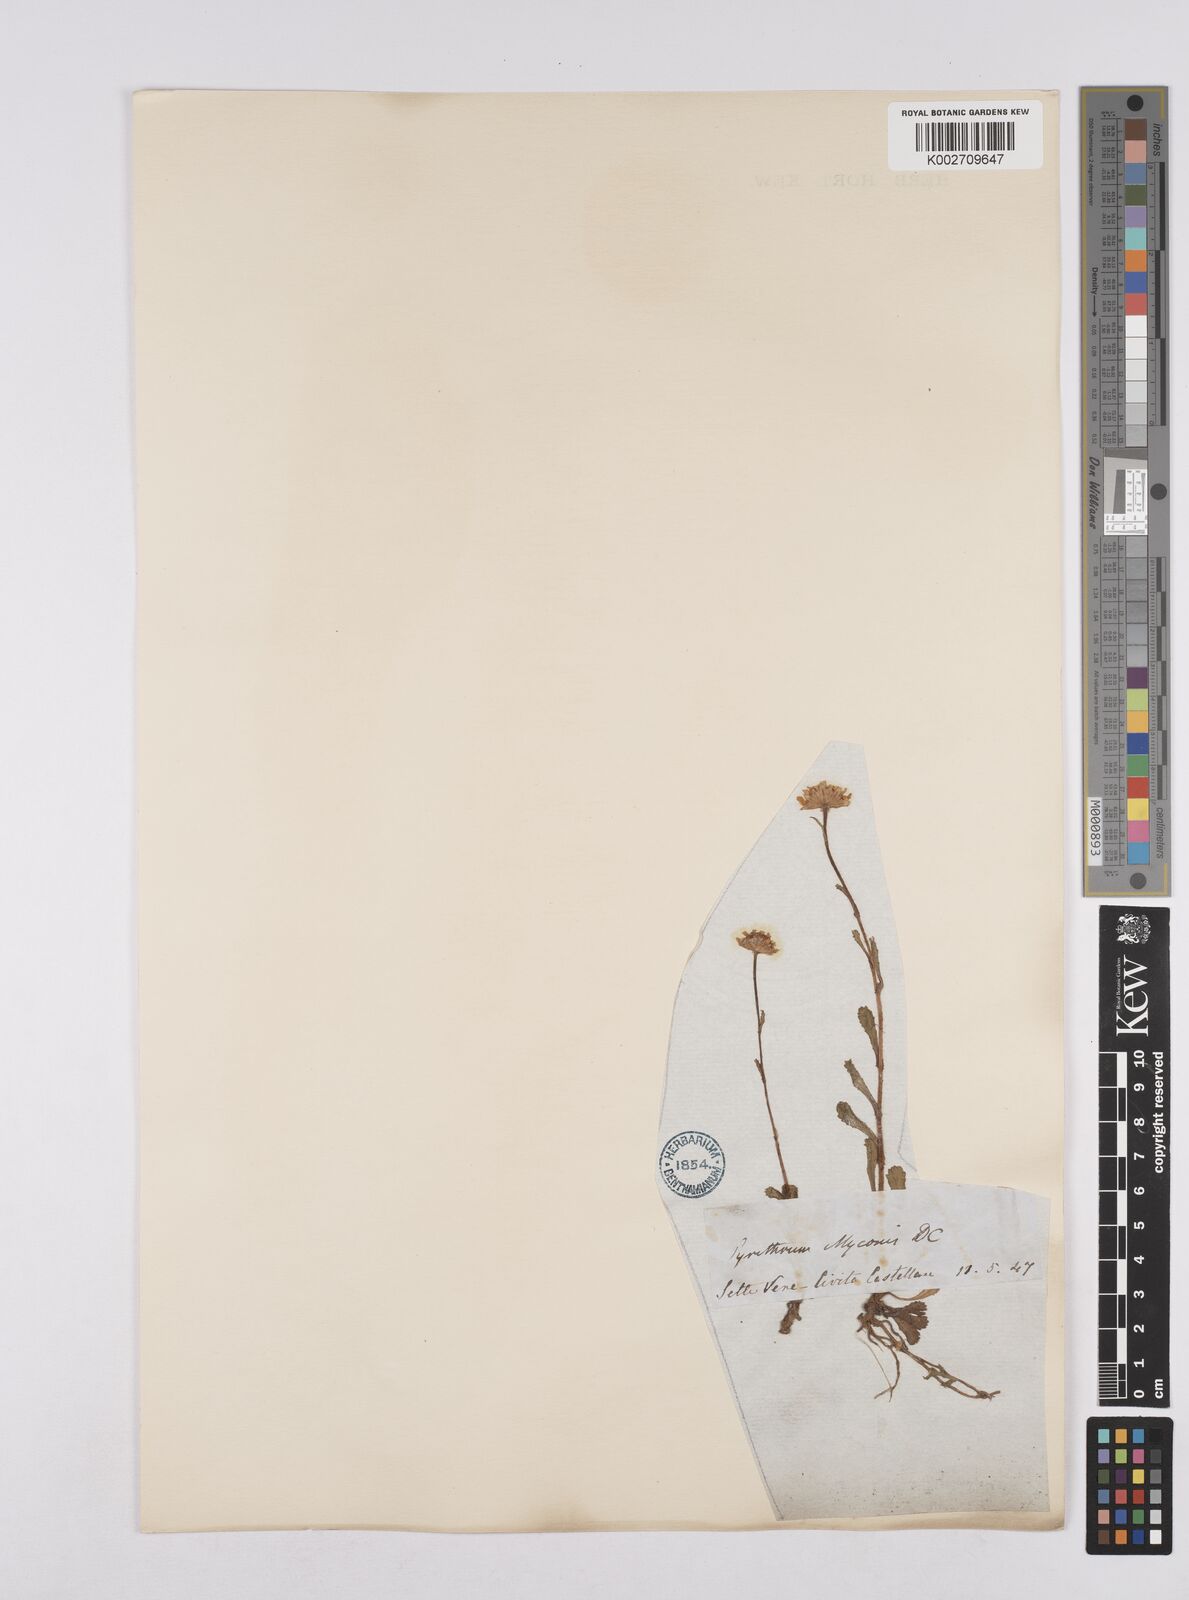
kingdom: Plantae
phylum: Tracheophyta
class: Magnoliopsida
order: Asterales
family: Asteraceae
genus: Coleostephus
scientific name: Coleostephus myconis
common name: Mediterranean marigold
